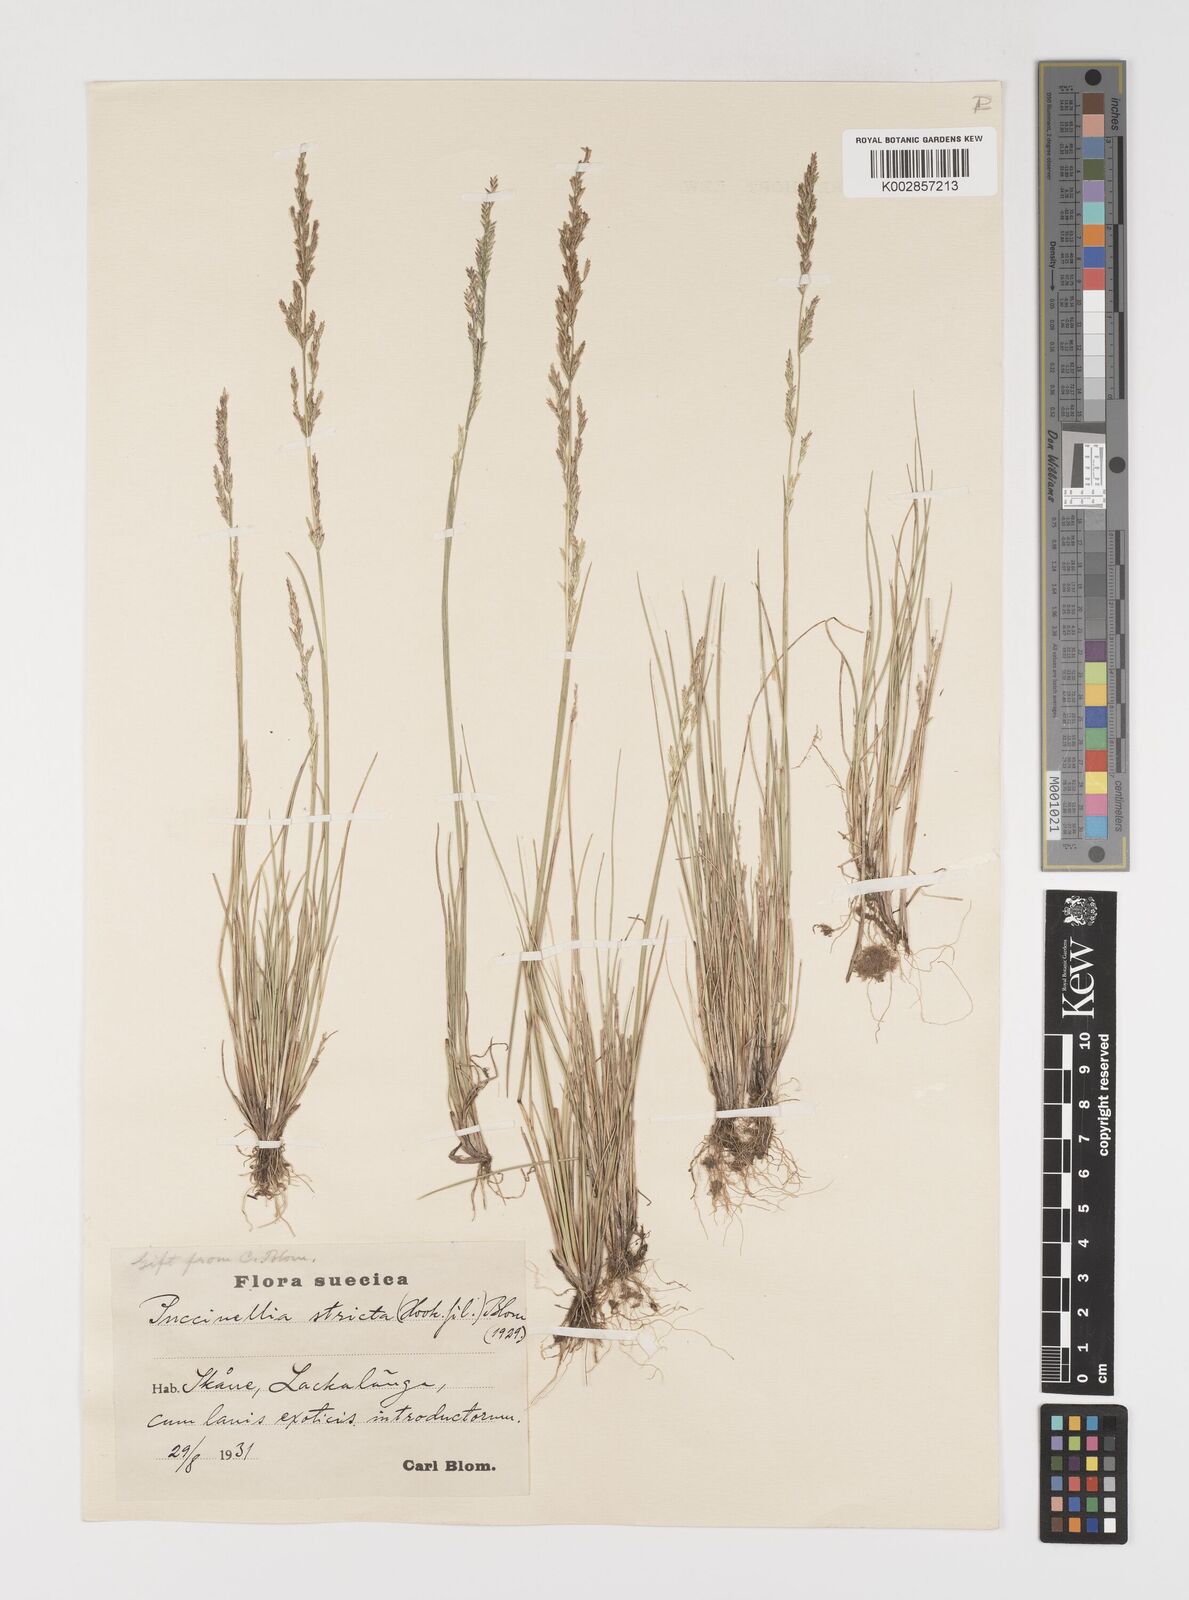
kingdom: Plantae
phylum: Tracheophyta
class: Liliopsida
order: Poales
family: Poaceae
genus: Sclerochloa
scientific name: Sclerochloa kengiana
